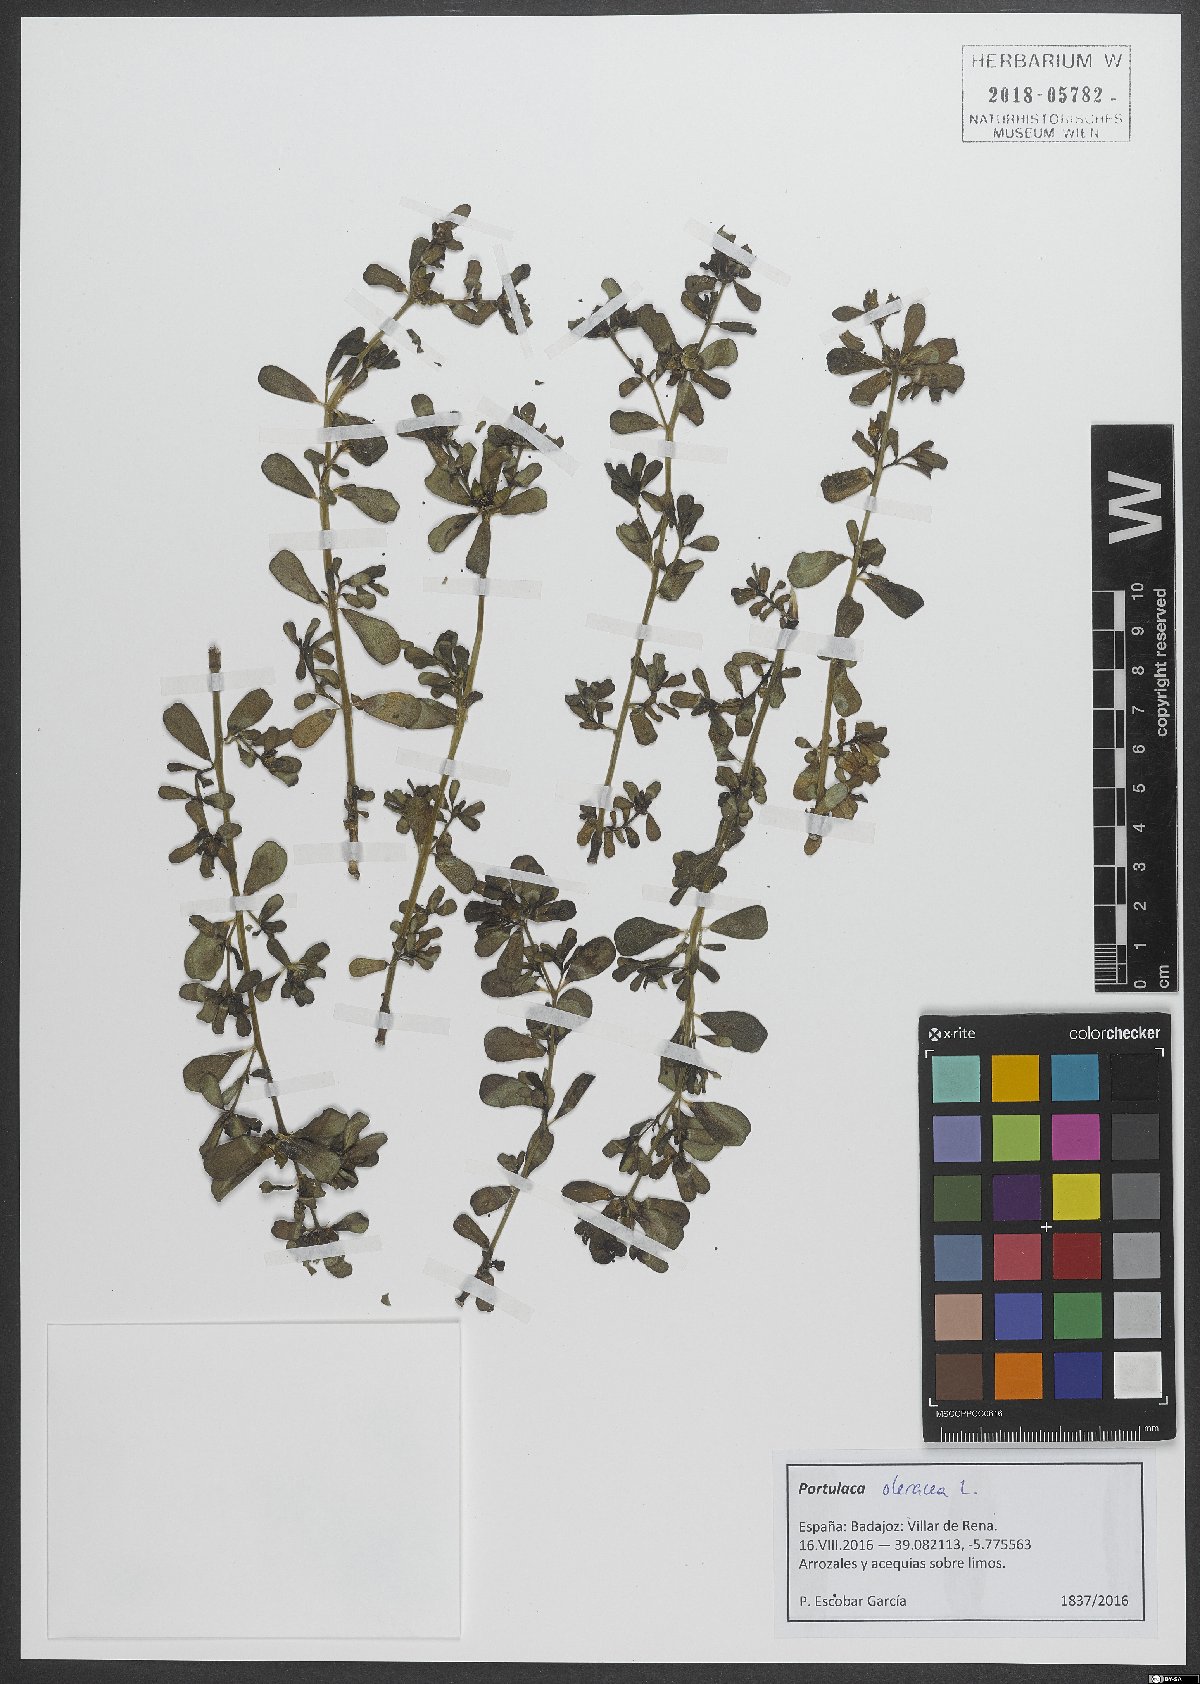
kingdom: Plantae
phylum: Tracheophyta
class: Magnoliopsida
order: Caryophyllales
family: Portulacaceae
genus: Portulaca
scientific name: Portulaca oleracea
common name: Common purslane
